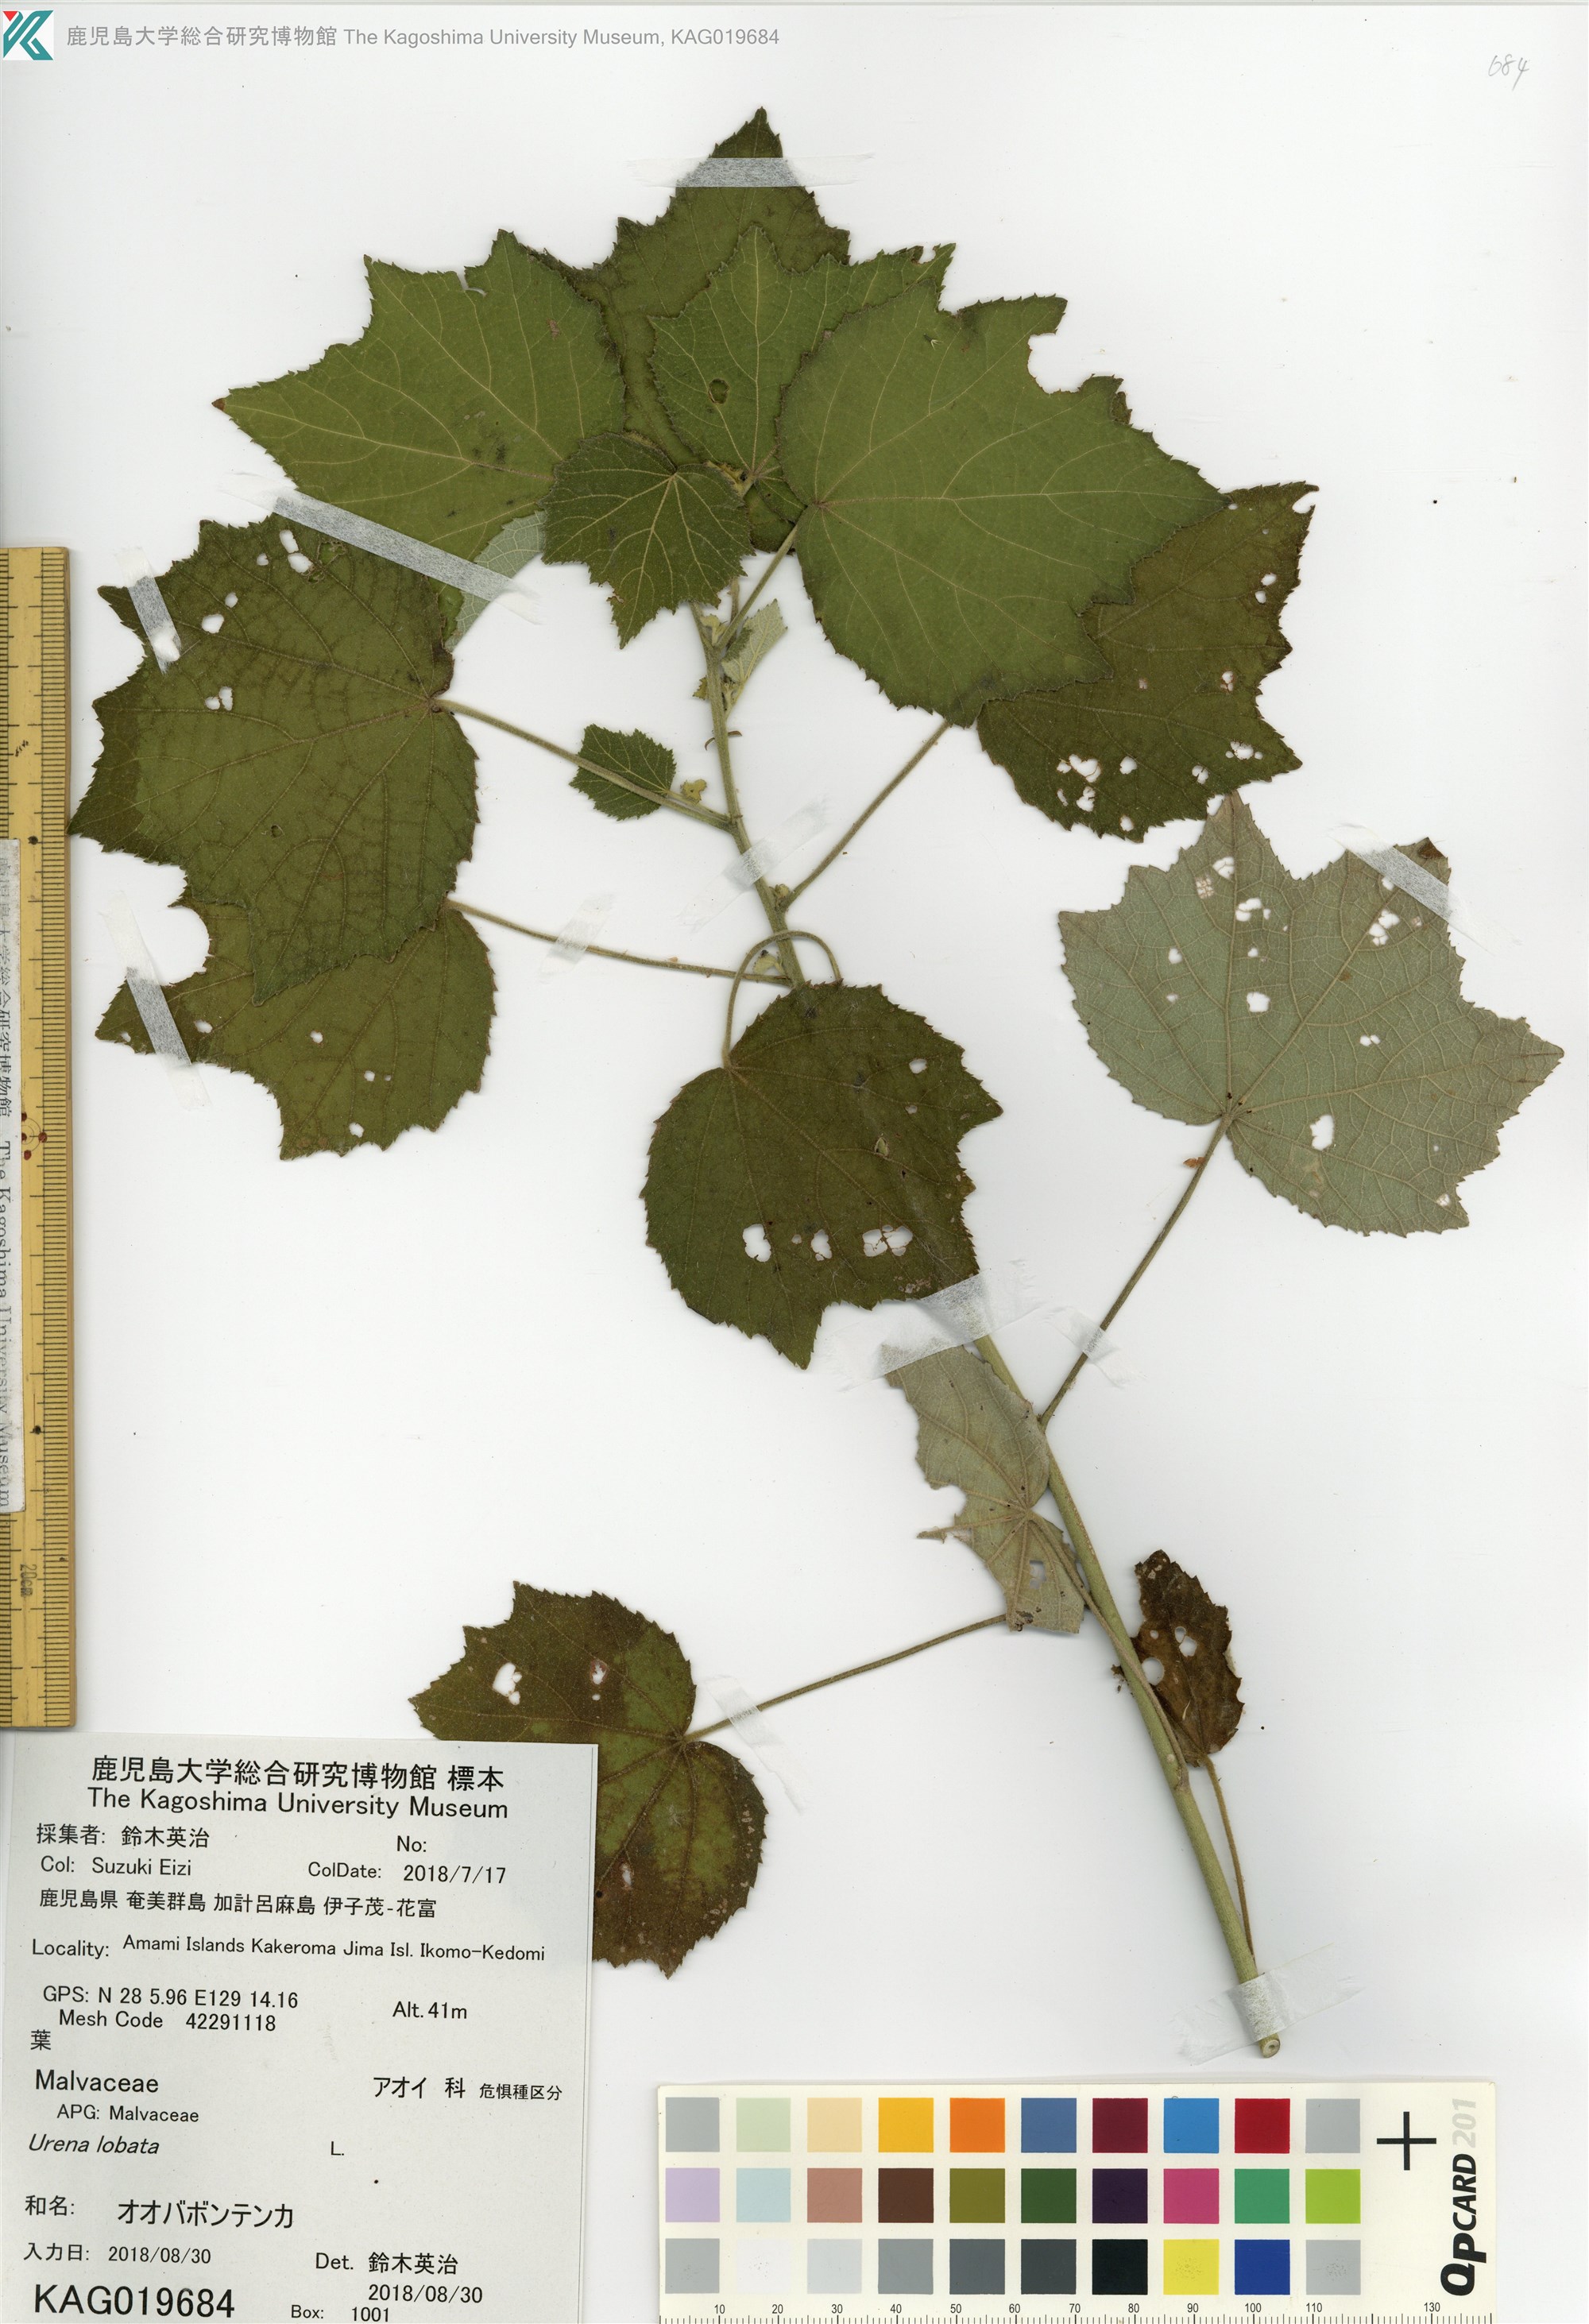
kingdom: Plantae
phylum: Tracheophyta
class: Magnoliopsida
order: Malvales
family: Malvaceae
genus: Urena
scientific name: Urena lobata
